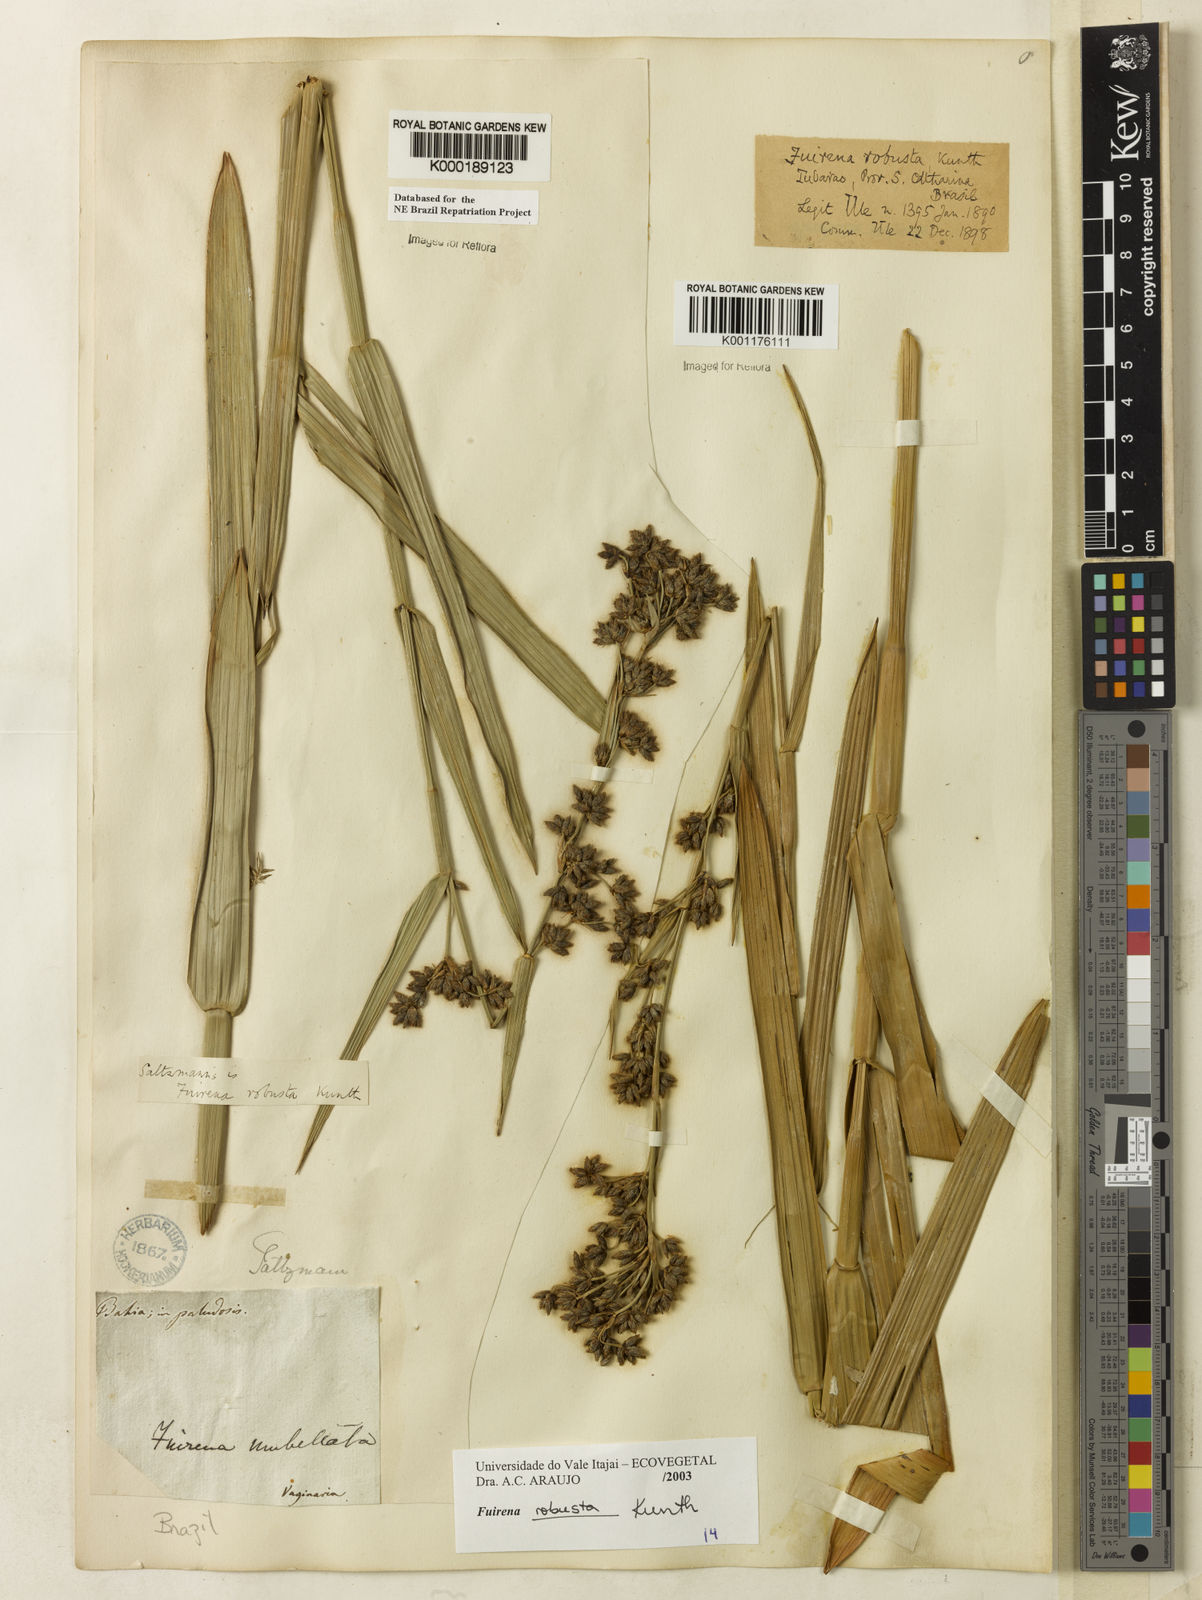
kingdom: Plantae
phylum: Tracheophyta
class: Liliopsida
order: Poales
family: Cyperaceae
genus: Fuirena
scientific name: Fuirena robusta
